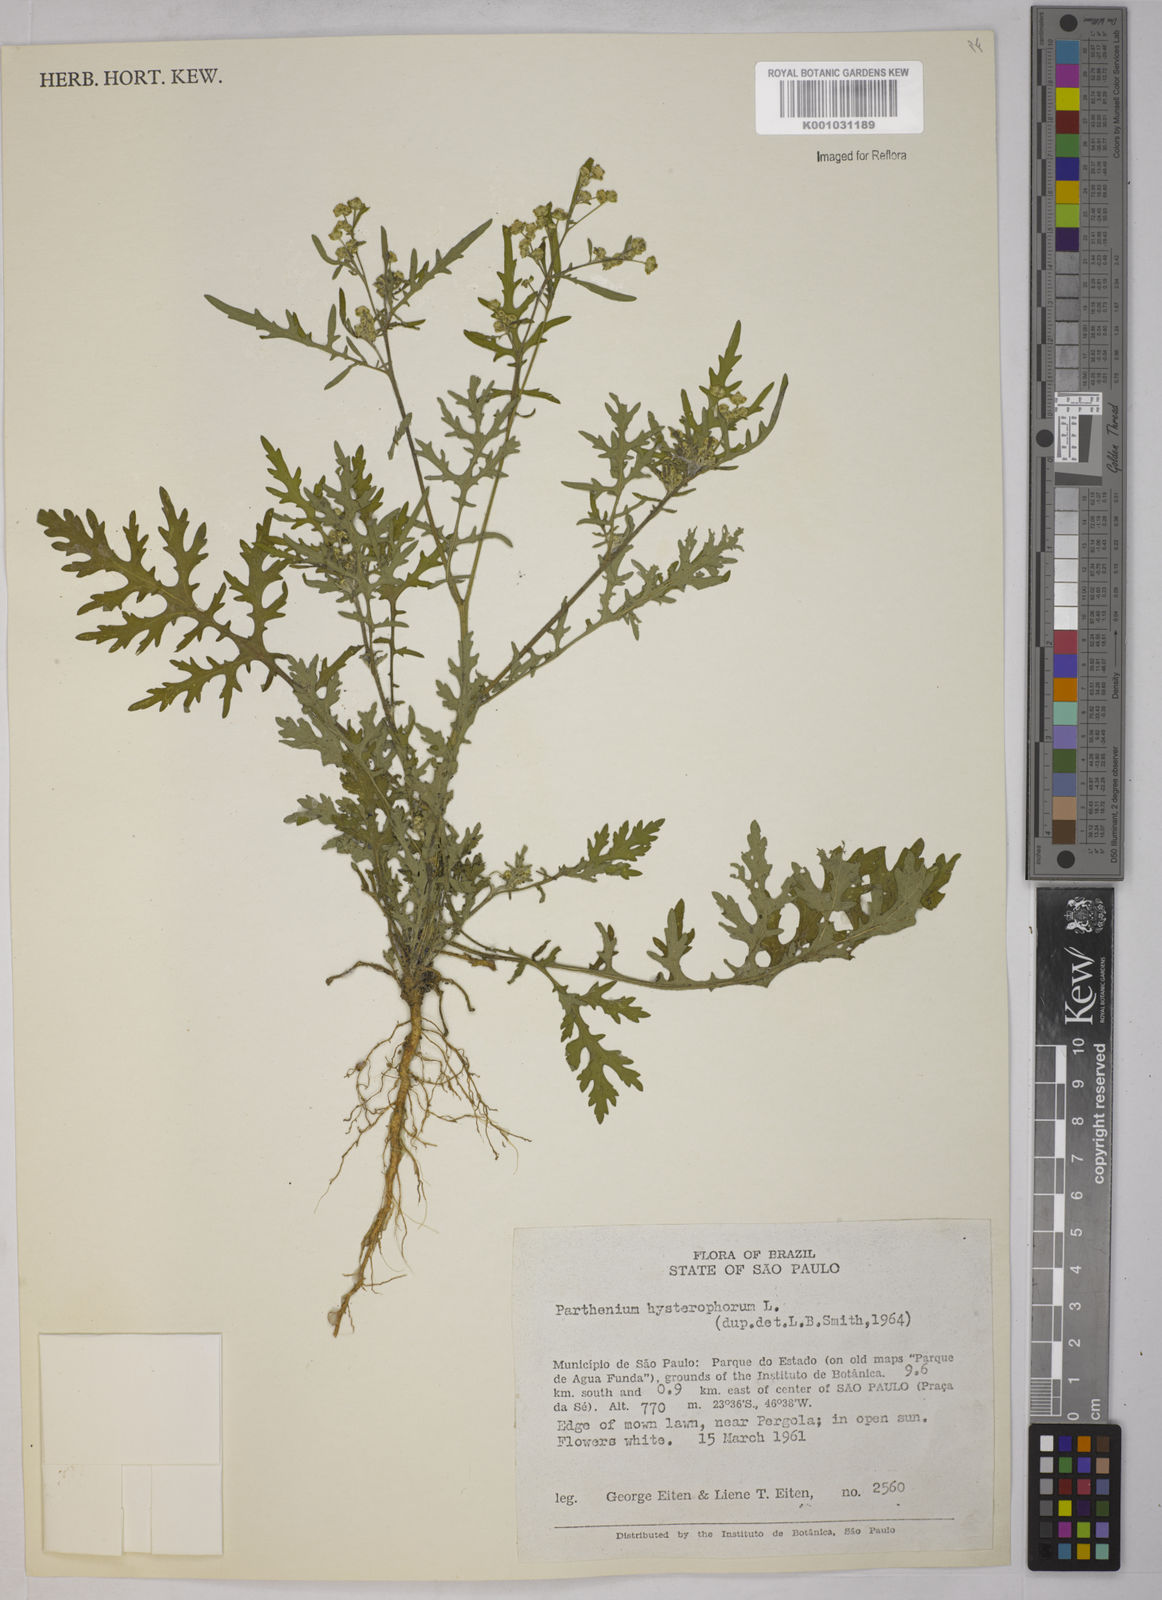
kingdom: Plantae
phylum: Tracheophyta
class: Magnoliopsida
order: Asterales
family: Asteraceae
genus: Parthenium
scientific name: Parthenium hysterophorus
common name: Santa maria feverfew
